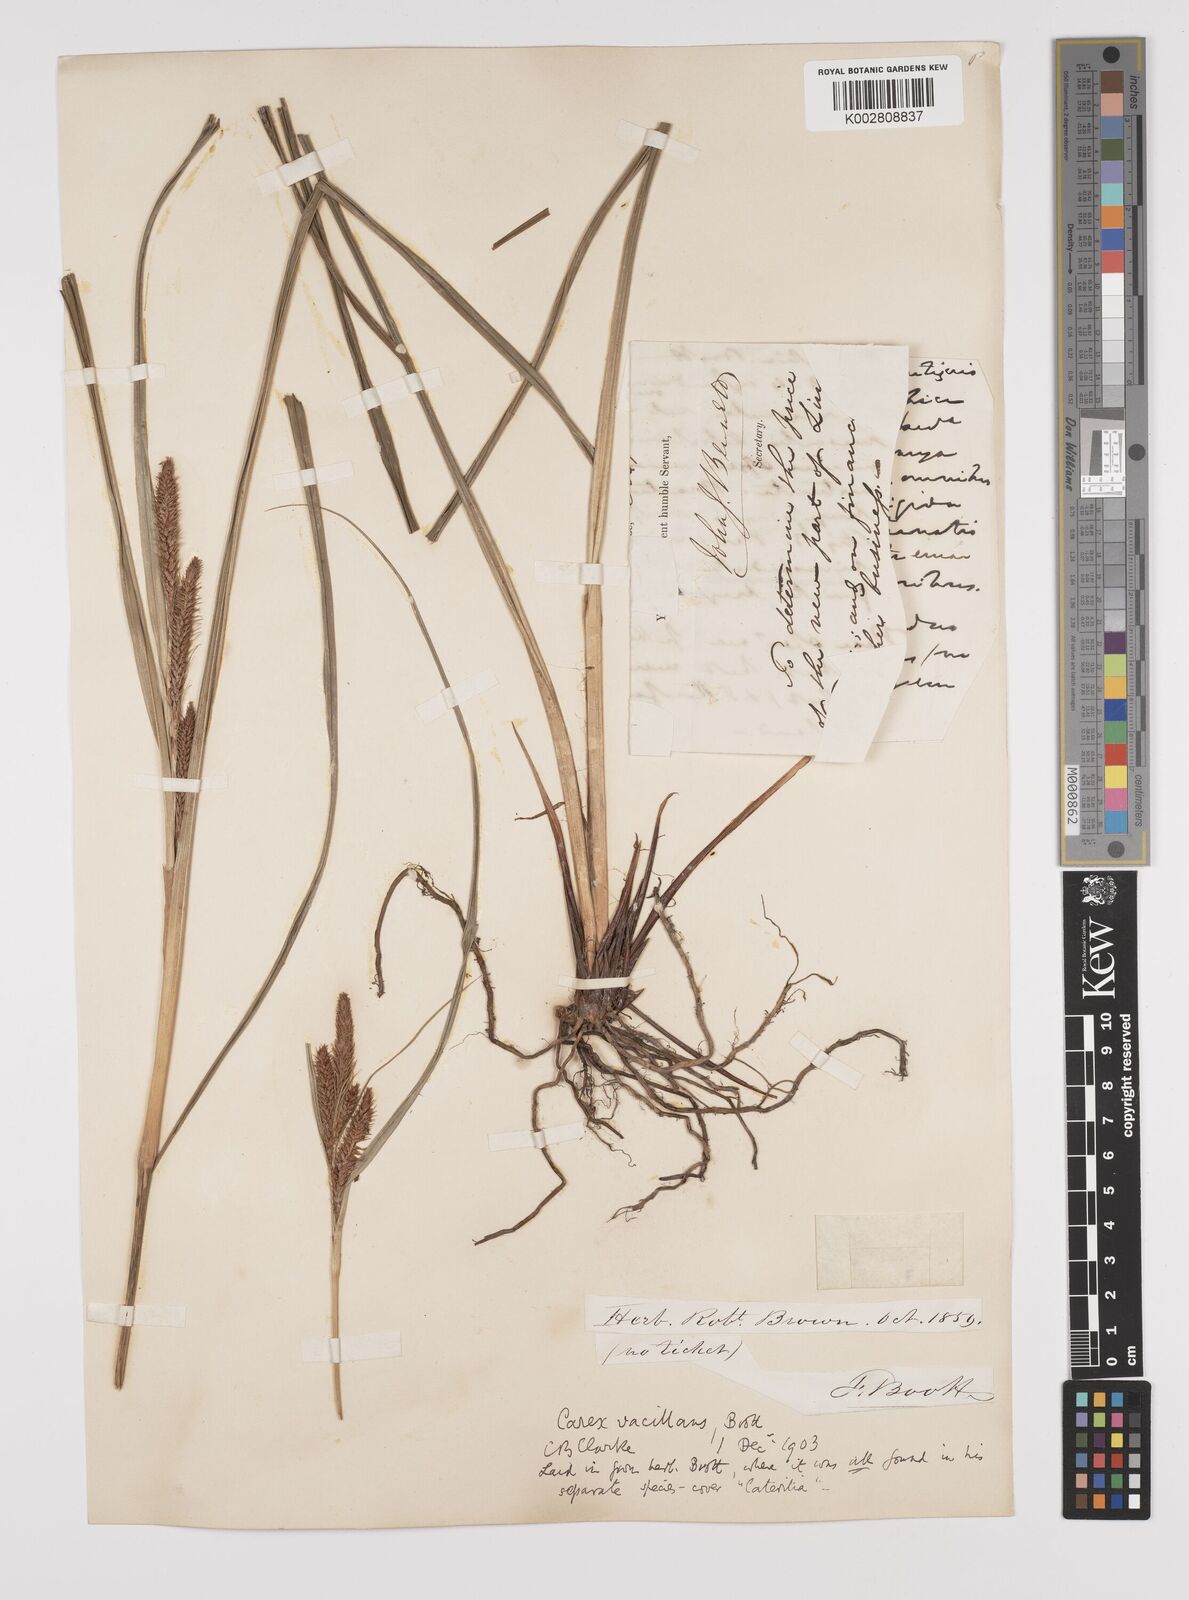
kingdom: Plantae
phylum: Tracheophyta
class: Liliopsida
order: Poales
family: Cyperaceae
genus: Carex
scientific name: Carex spinirostris
